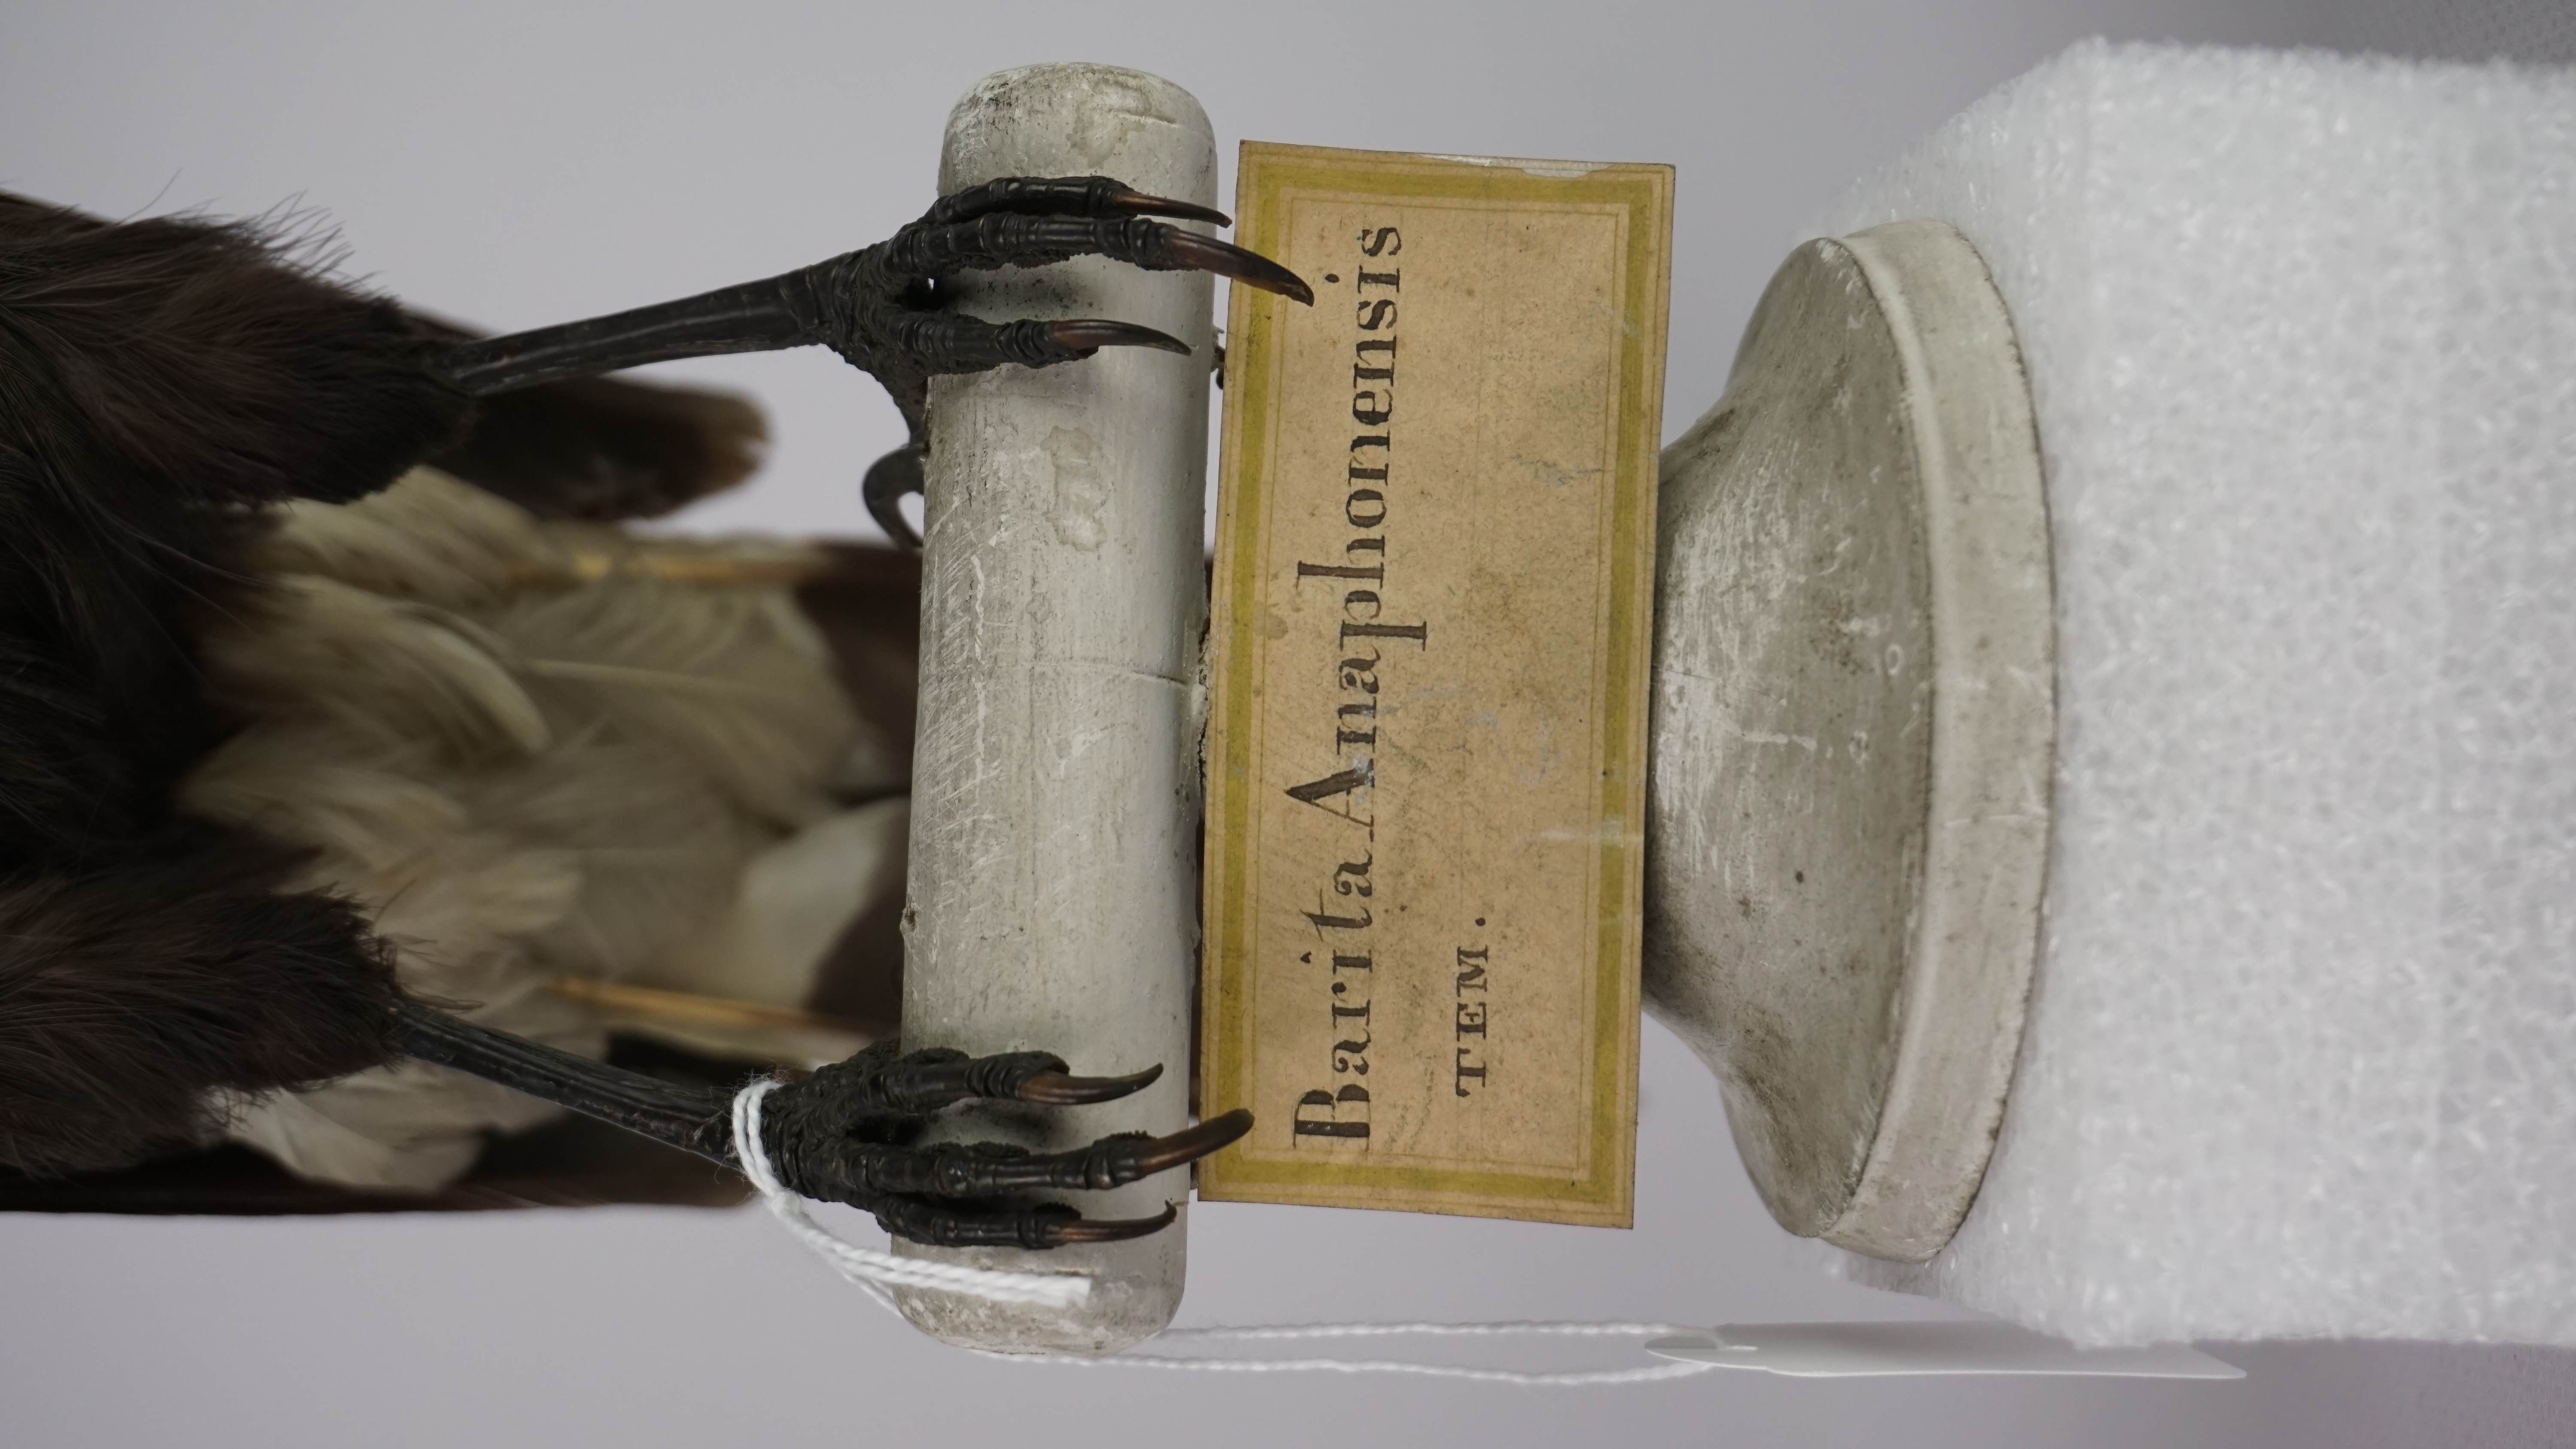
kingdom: Animalia
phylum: Chordata
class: Aves
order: Passeriformes
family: Cracticidae
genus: Strepera
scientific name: Strepera graculina
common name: Pied currawong
